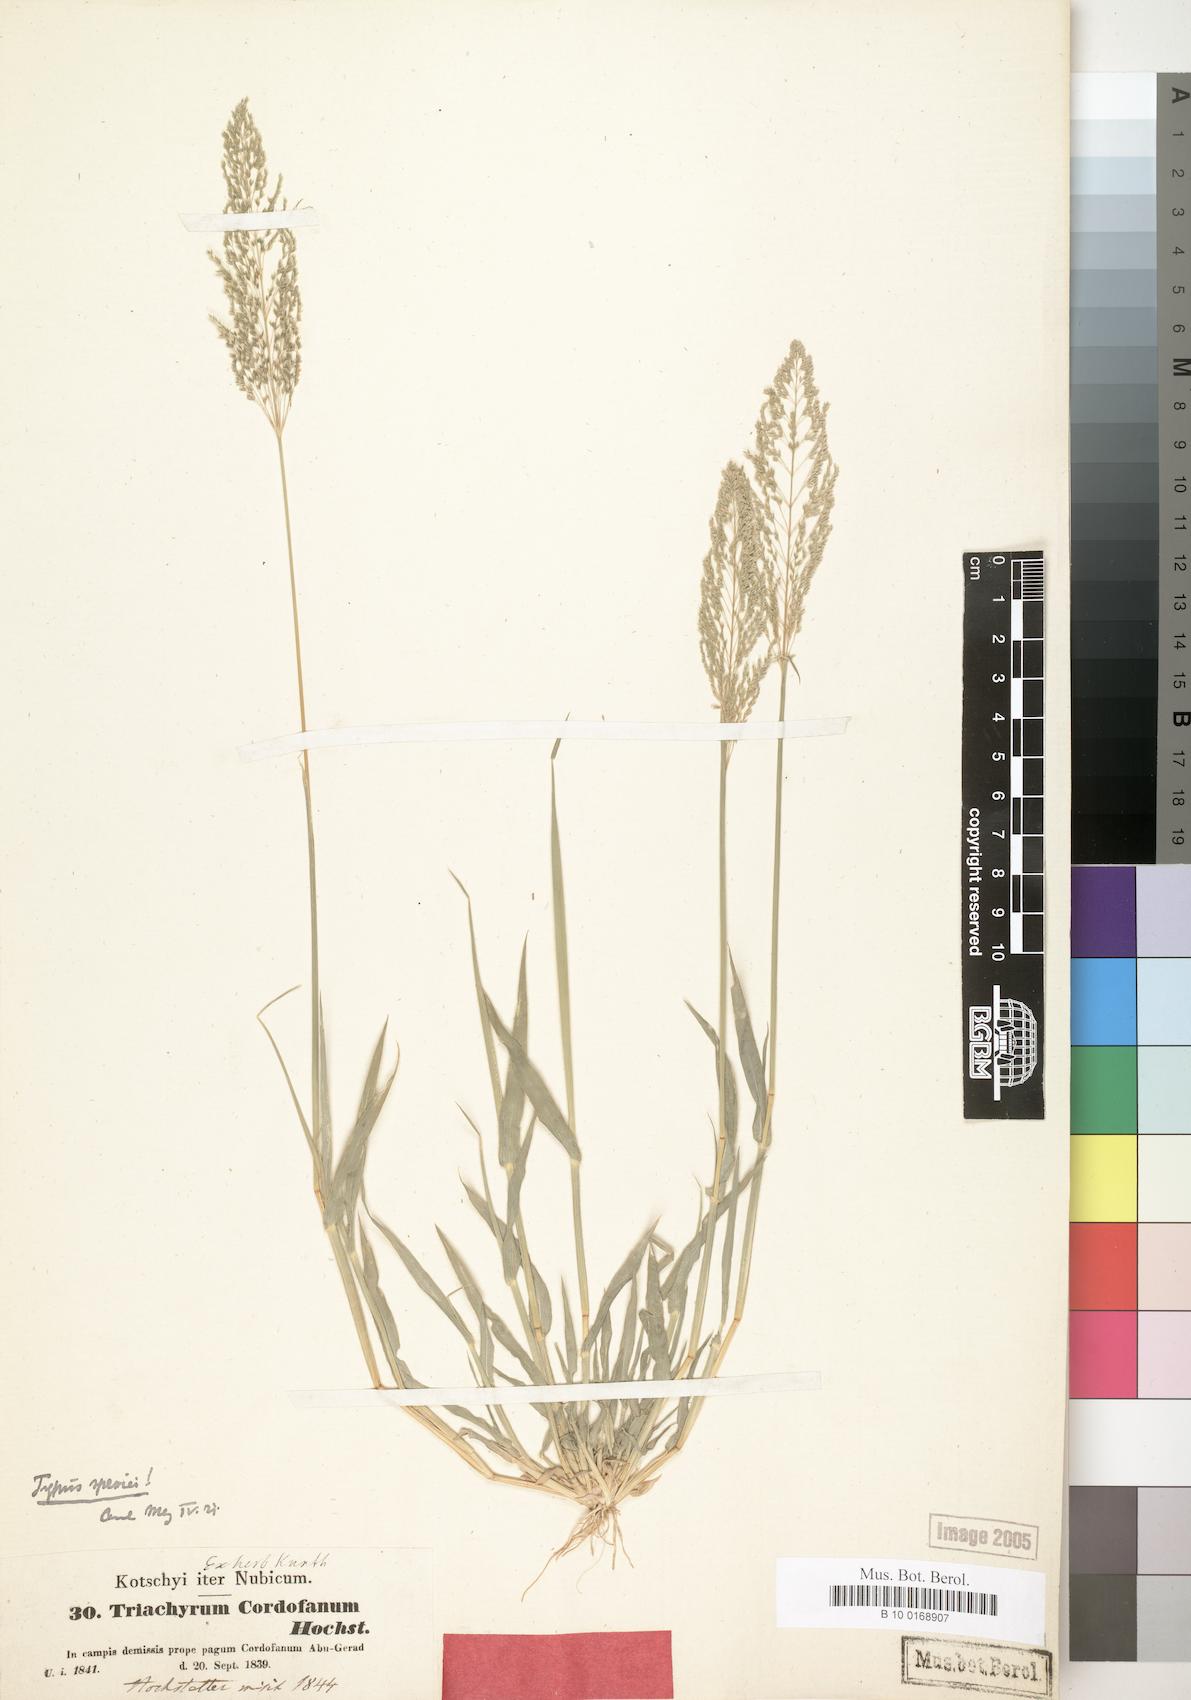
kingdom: Plantae
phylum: Tracheophyta
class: Liliopsida
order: Poales
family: Poaceae
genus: Sporobolus
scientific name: Sporobolus Triachyrum cordofanum
